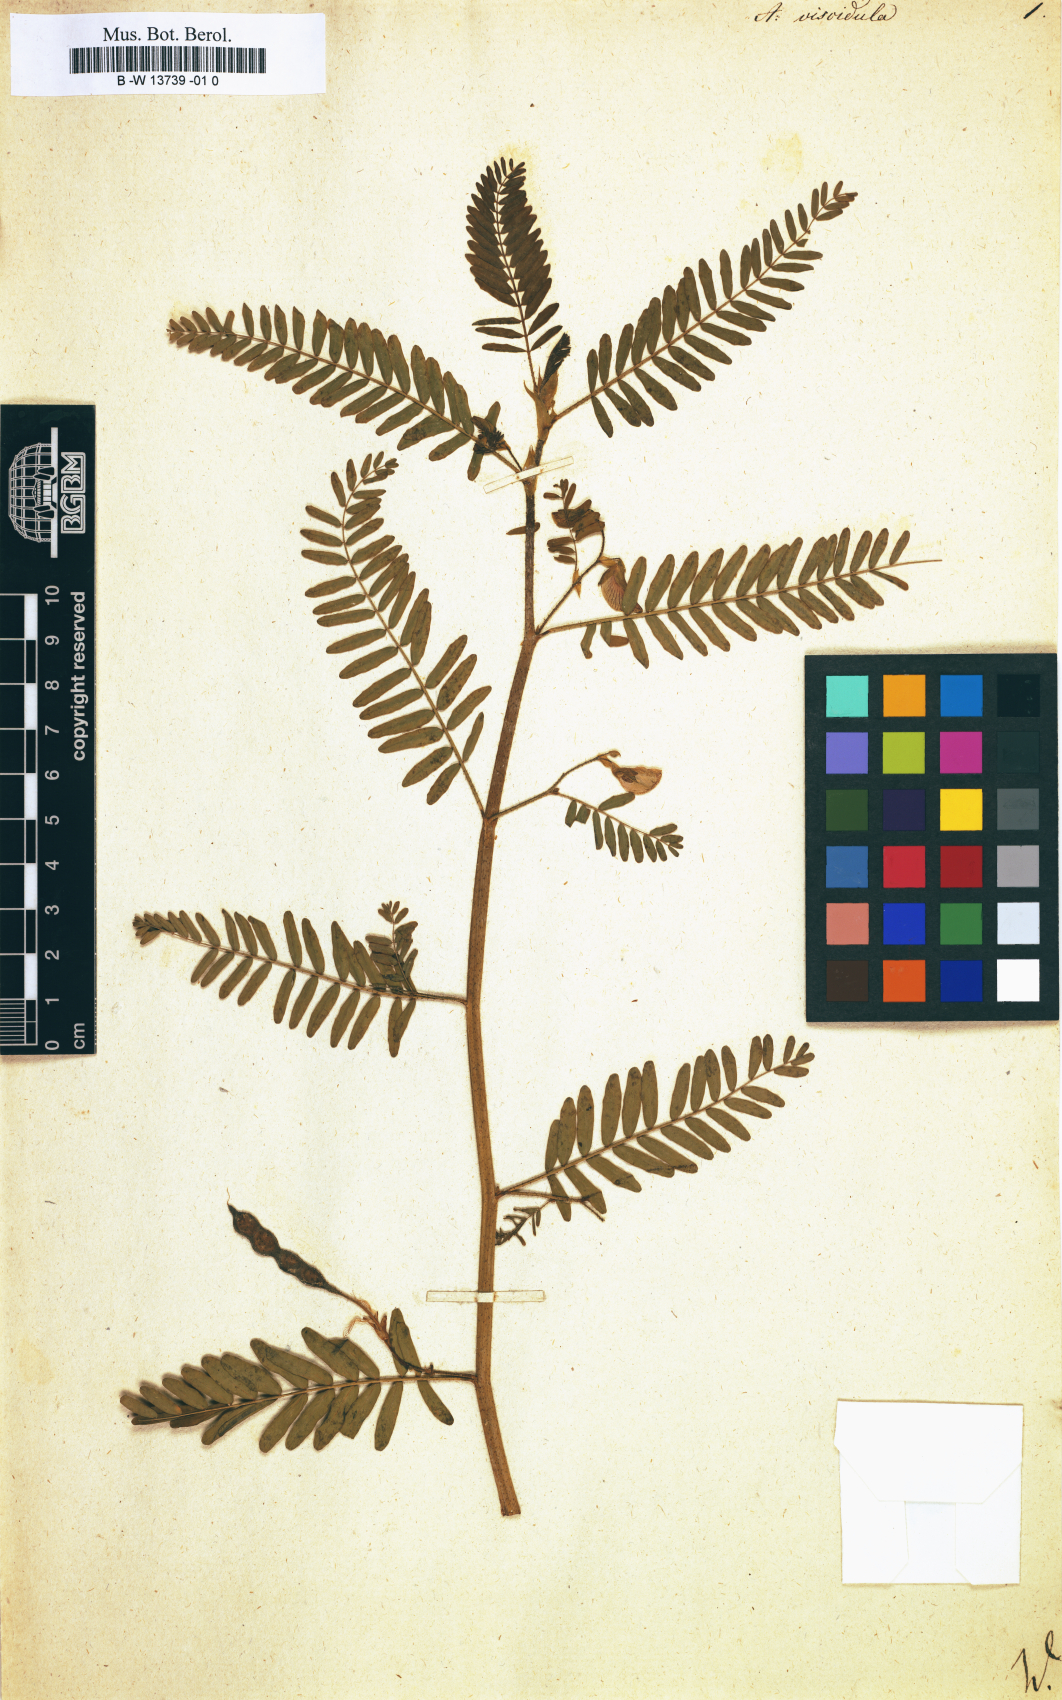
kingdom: Plantae
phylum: Tracheophyta
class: Magnoliopsida
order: Fabales
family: Fabaceae
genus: Ctenodon
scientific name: Ctenodon viscidulus
